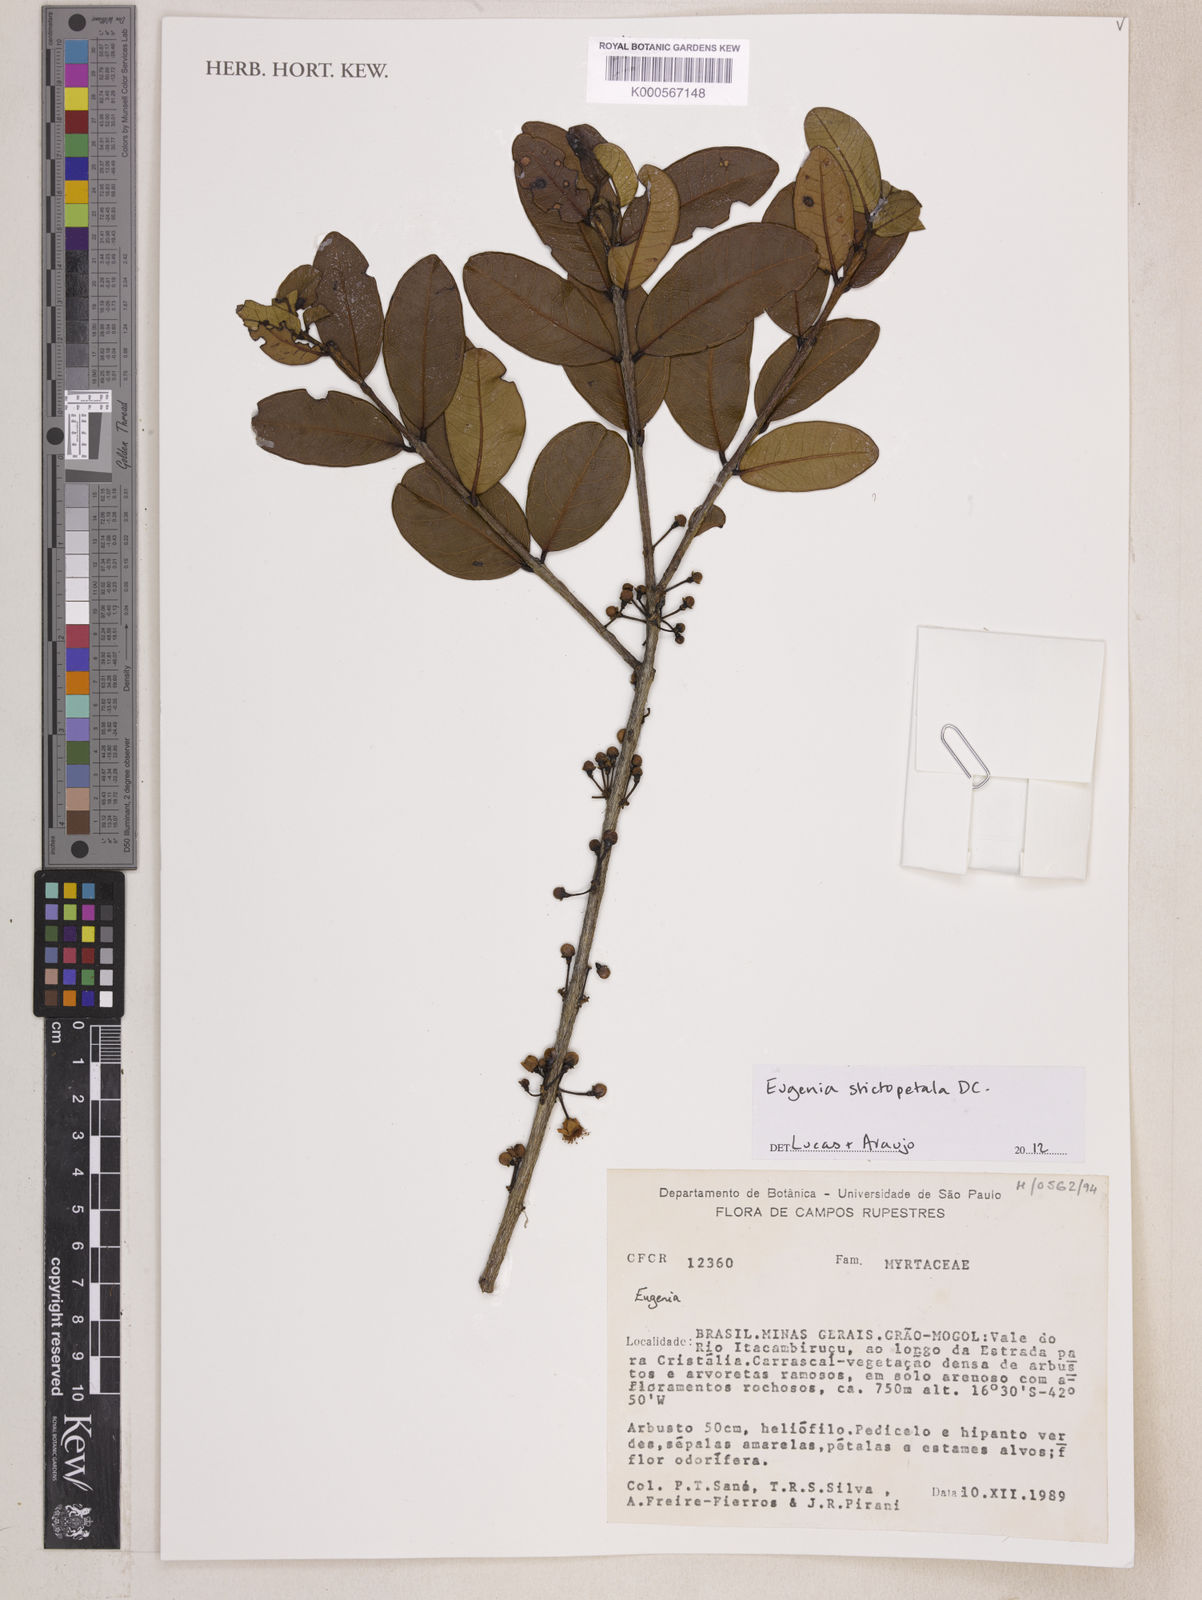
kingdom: Plantae
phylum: Tracheophyta
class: Magnoliopsida
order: Myrtales
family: Myrtaceae
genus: Eugenia
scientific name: Eugenia
